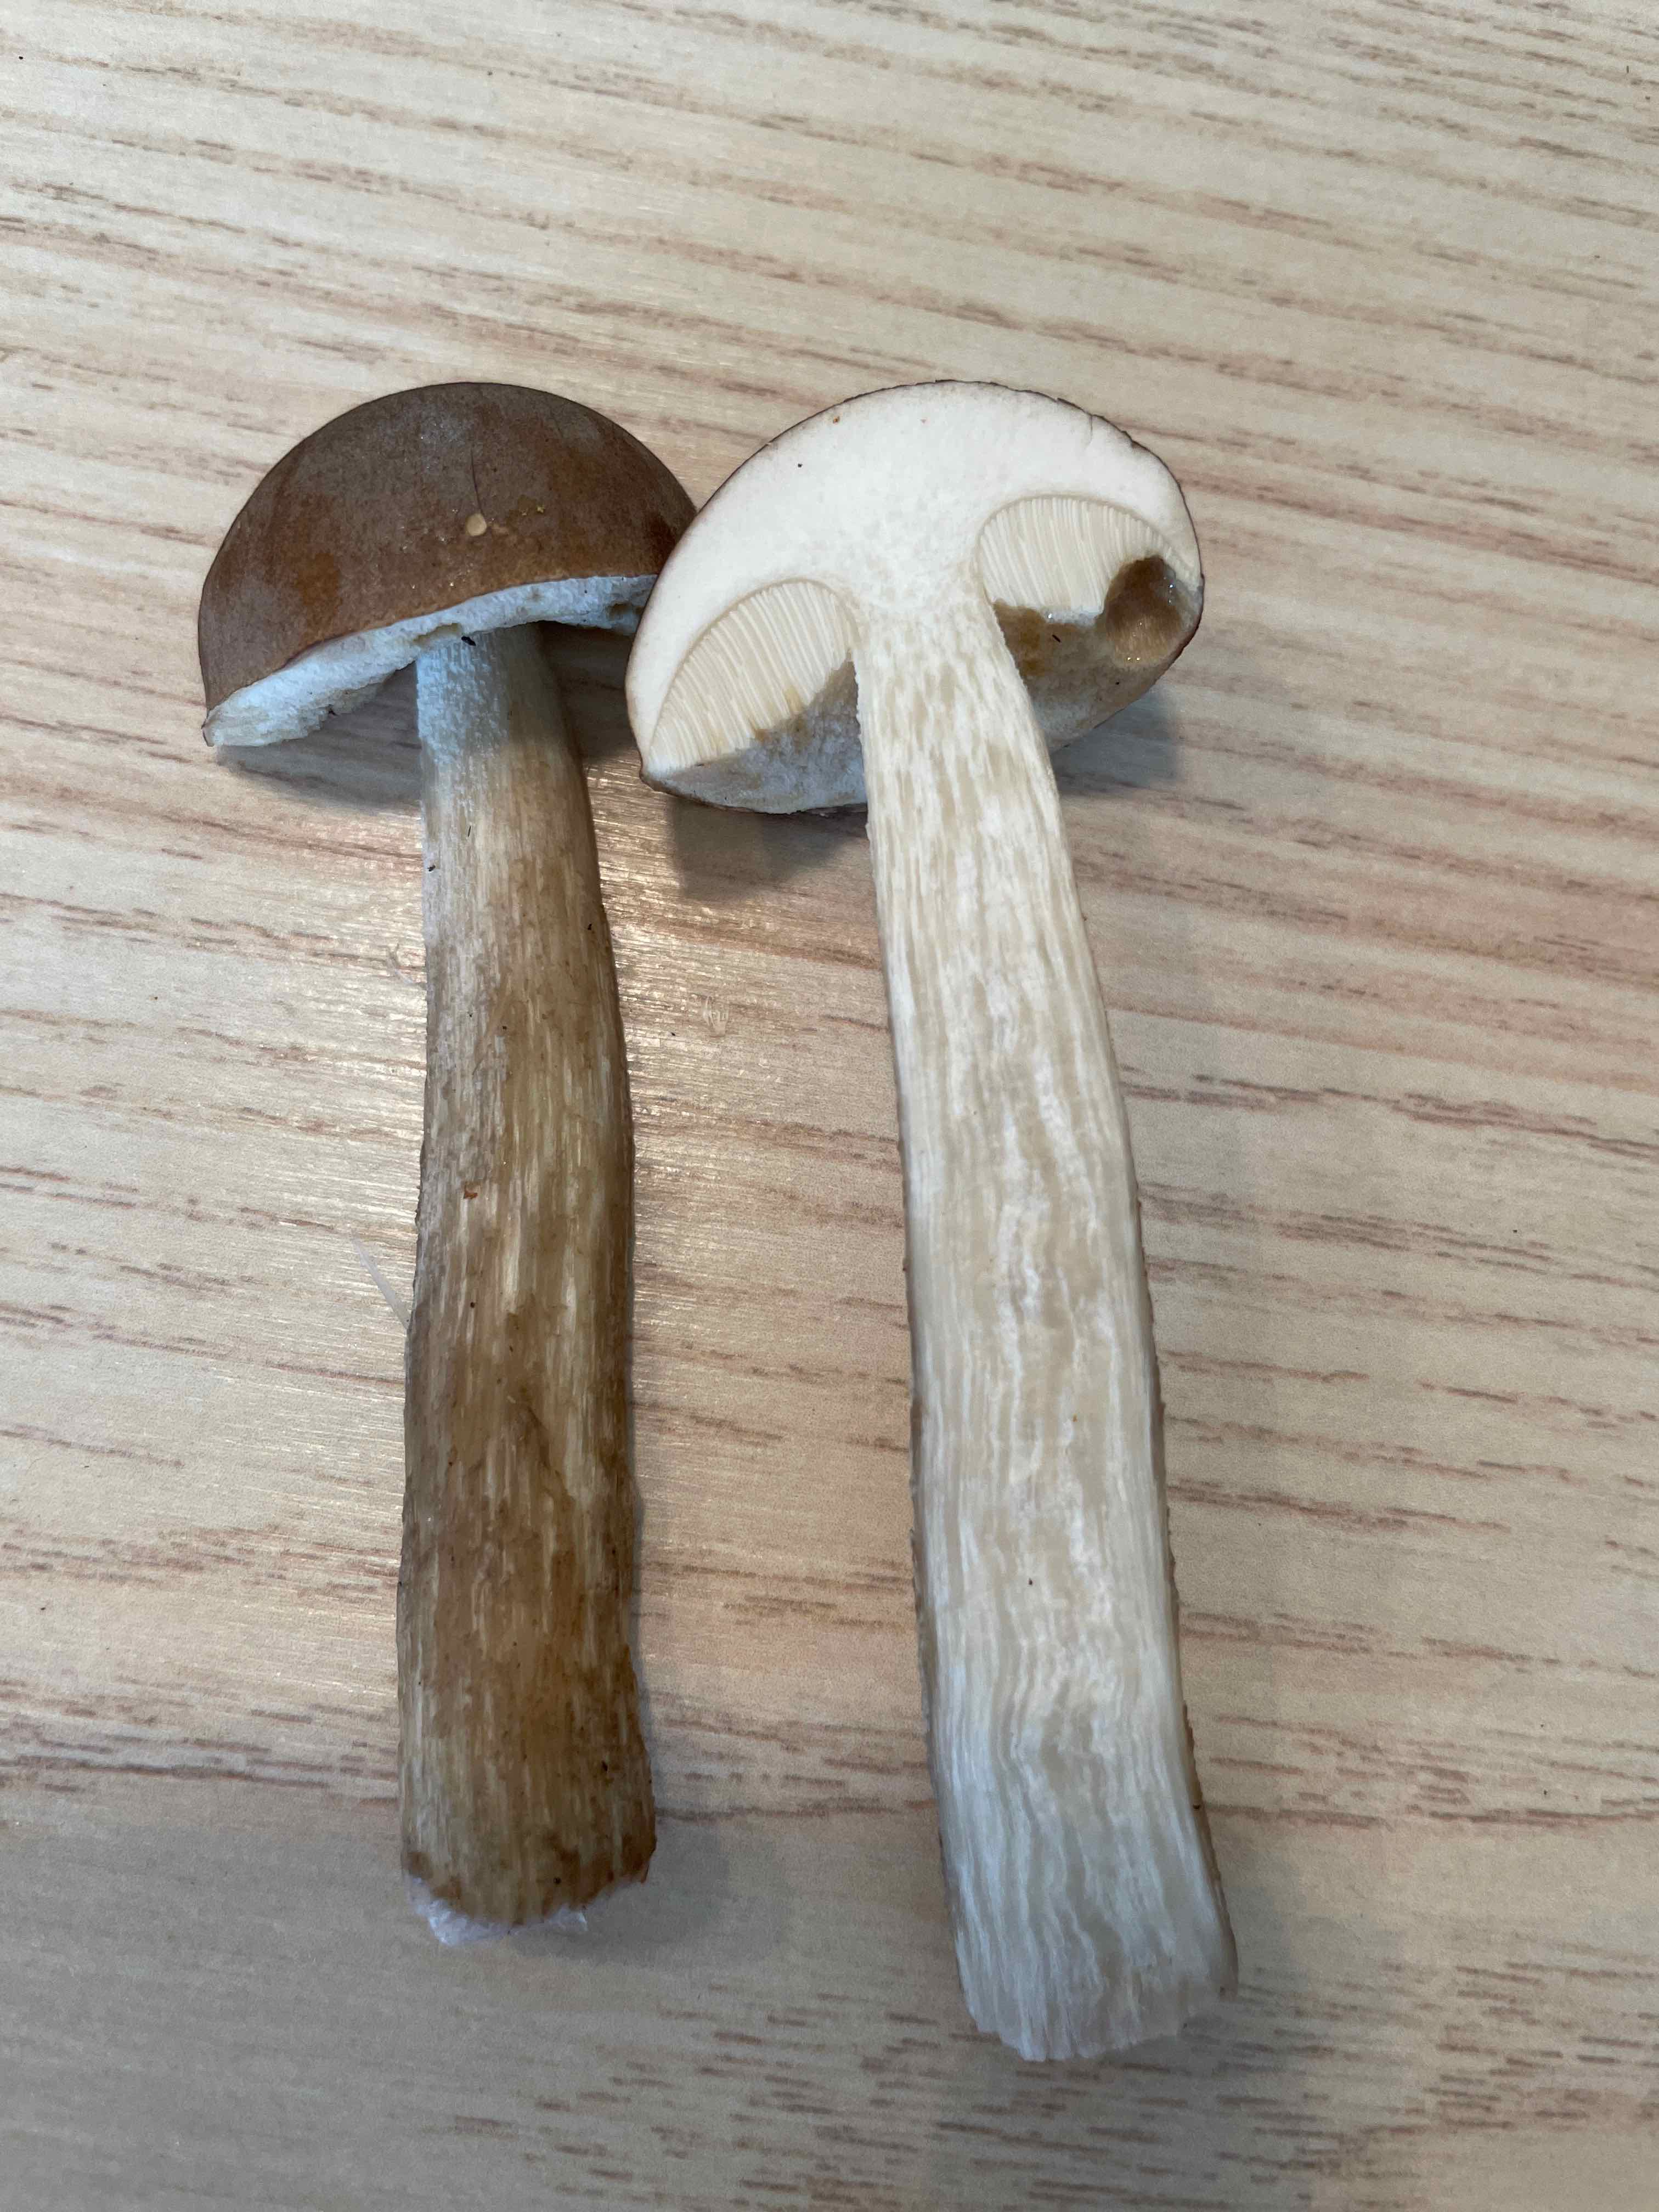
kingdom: Fungi
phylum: Basidiomycota
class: Agaricomycetes
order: Boletales
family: Boletaceae
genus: Leccinum
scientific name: Leccinum
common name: skælrørhat
